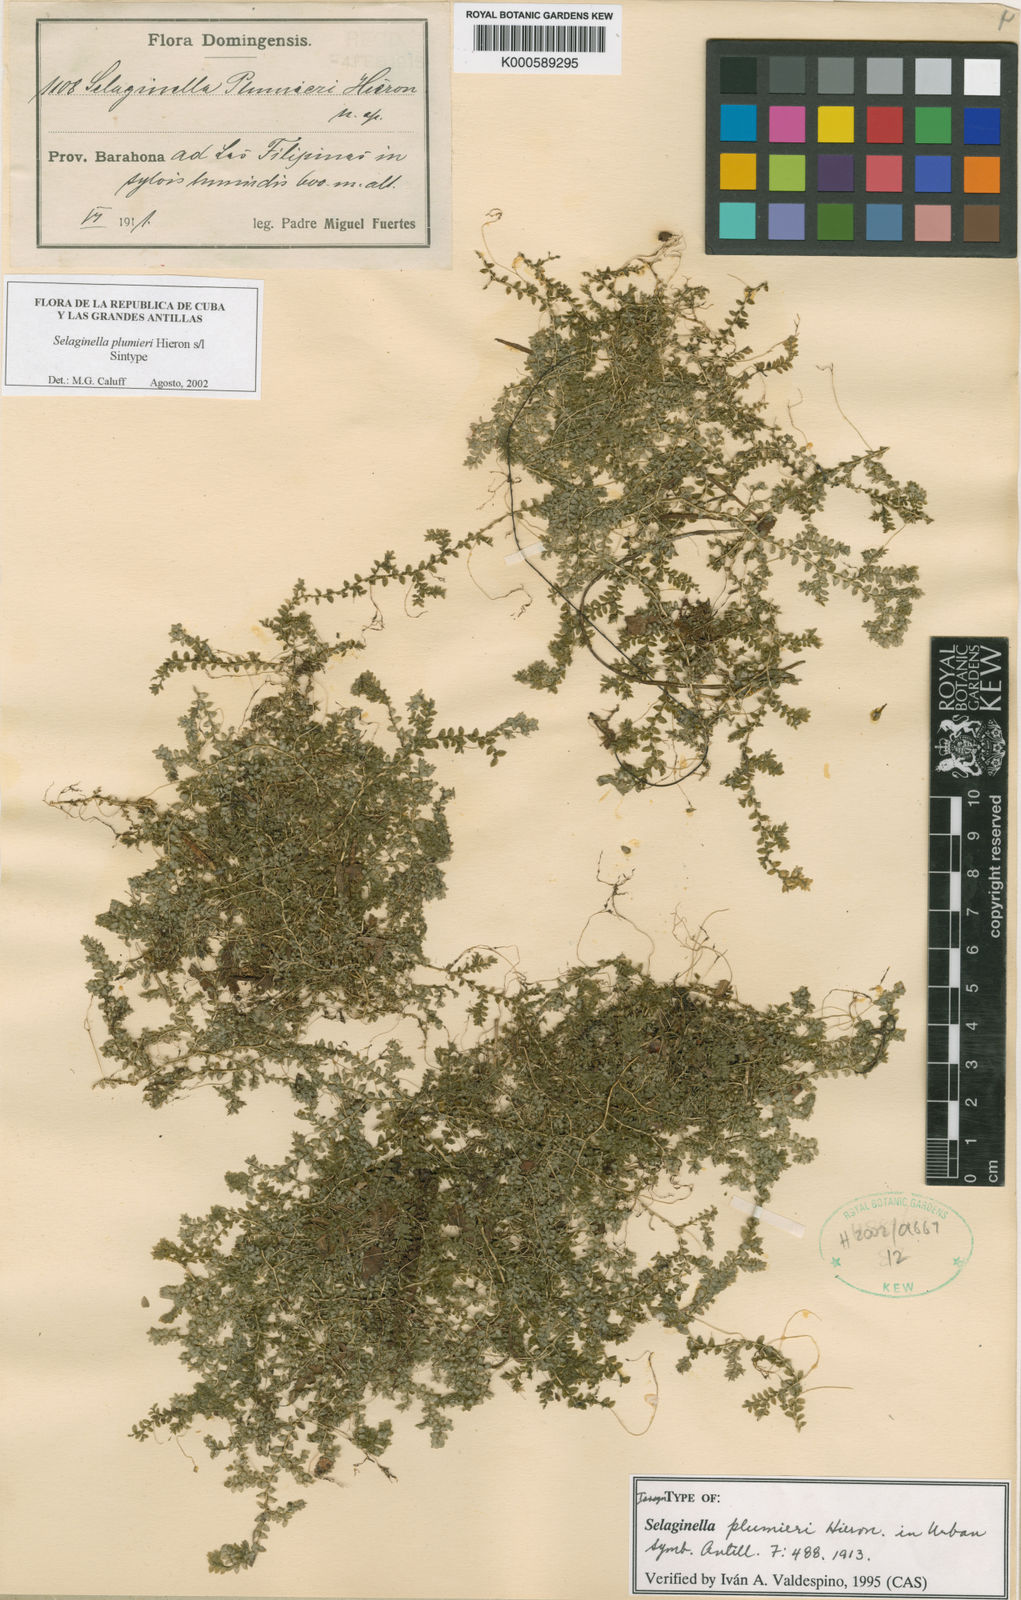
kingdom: Plantae
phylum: Tracheophyta
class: Lycopodiopsida
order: Selaginellales
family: Selaginellaceae
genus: Selaginella
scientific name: Selaginella plumieri
